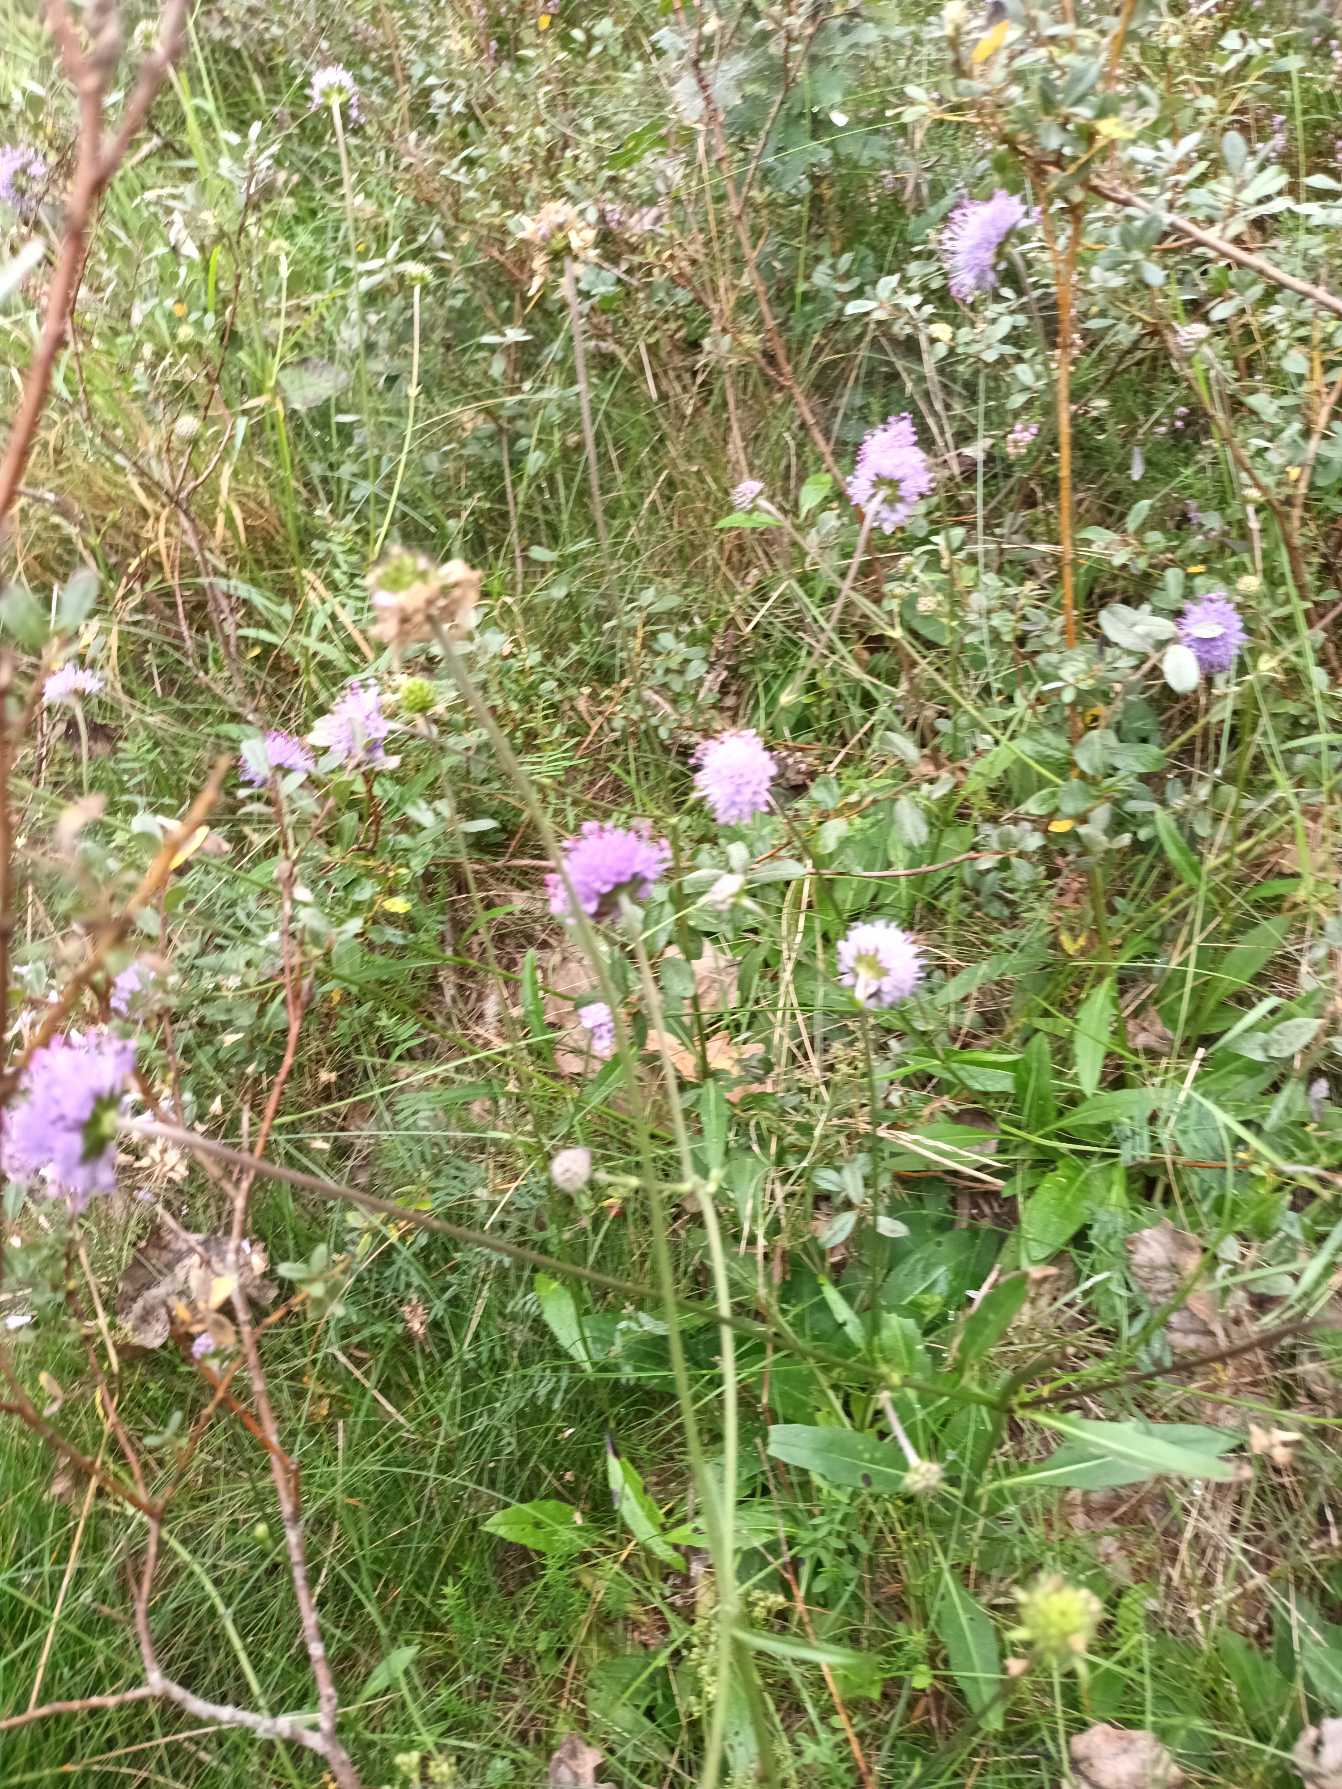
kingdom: Plantae
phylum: Tracheophyta
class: Magnoliopsida
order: Dipsacales
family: Caprifoliaceae
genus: Succisa
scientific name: Succisa pratensis
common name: Djævelsbid
